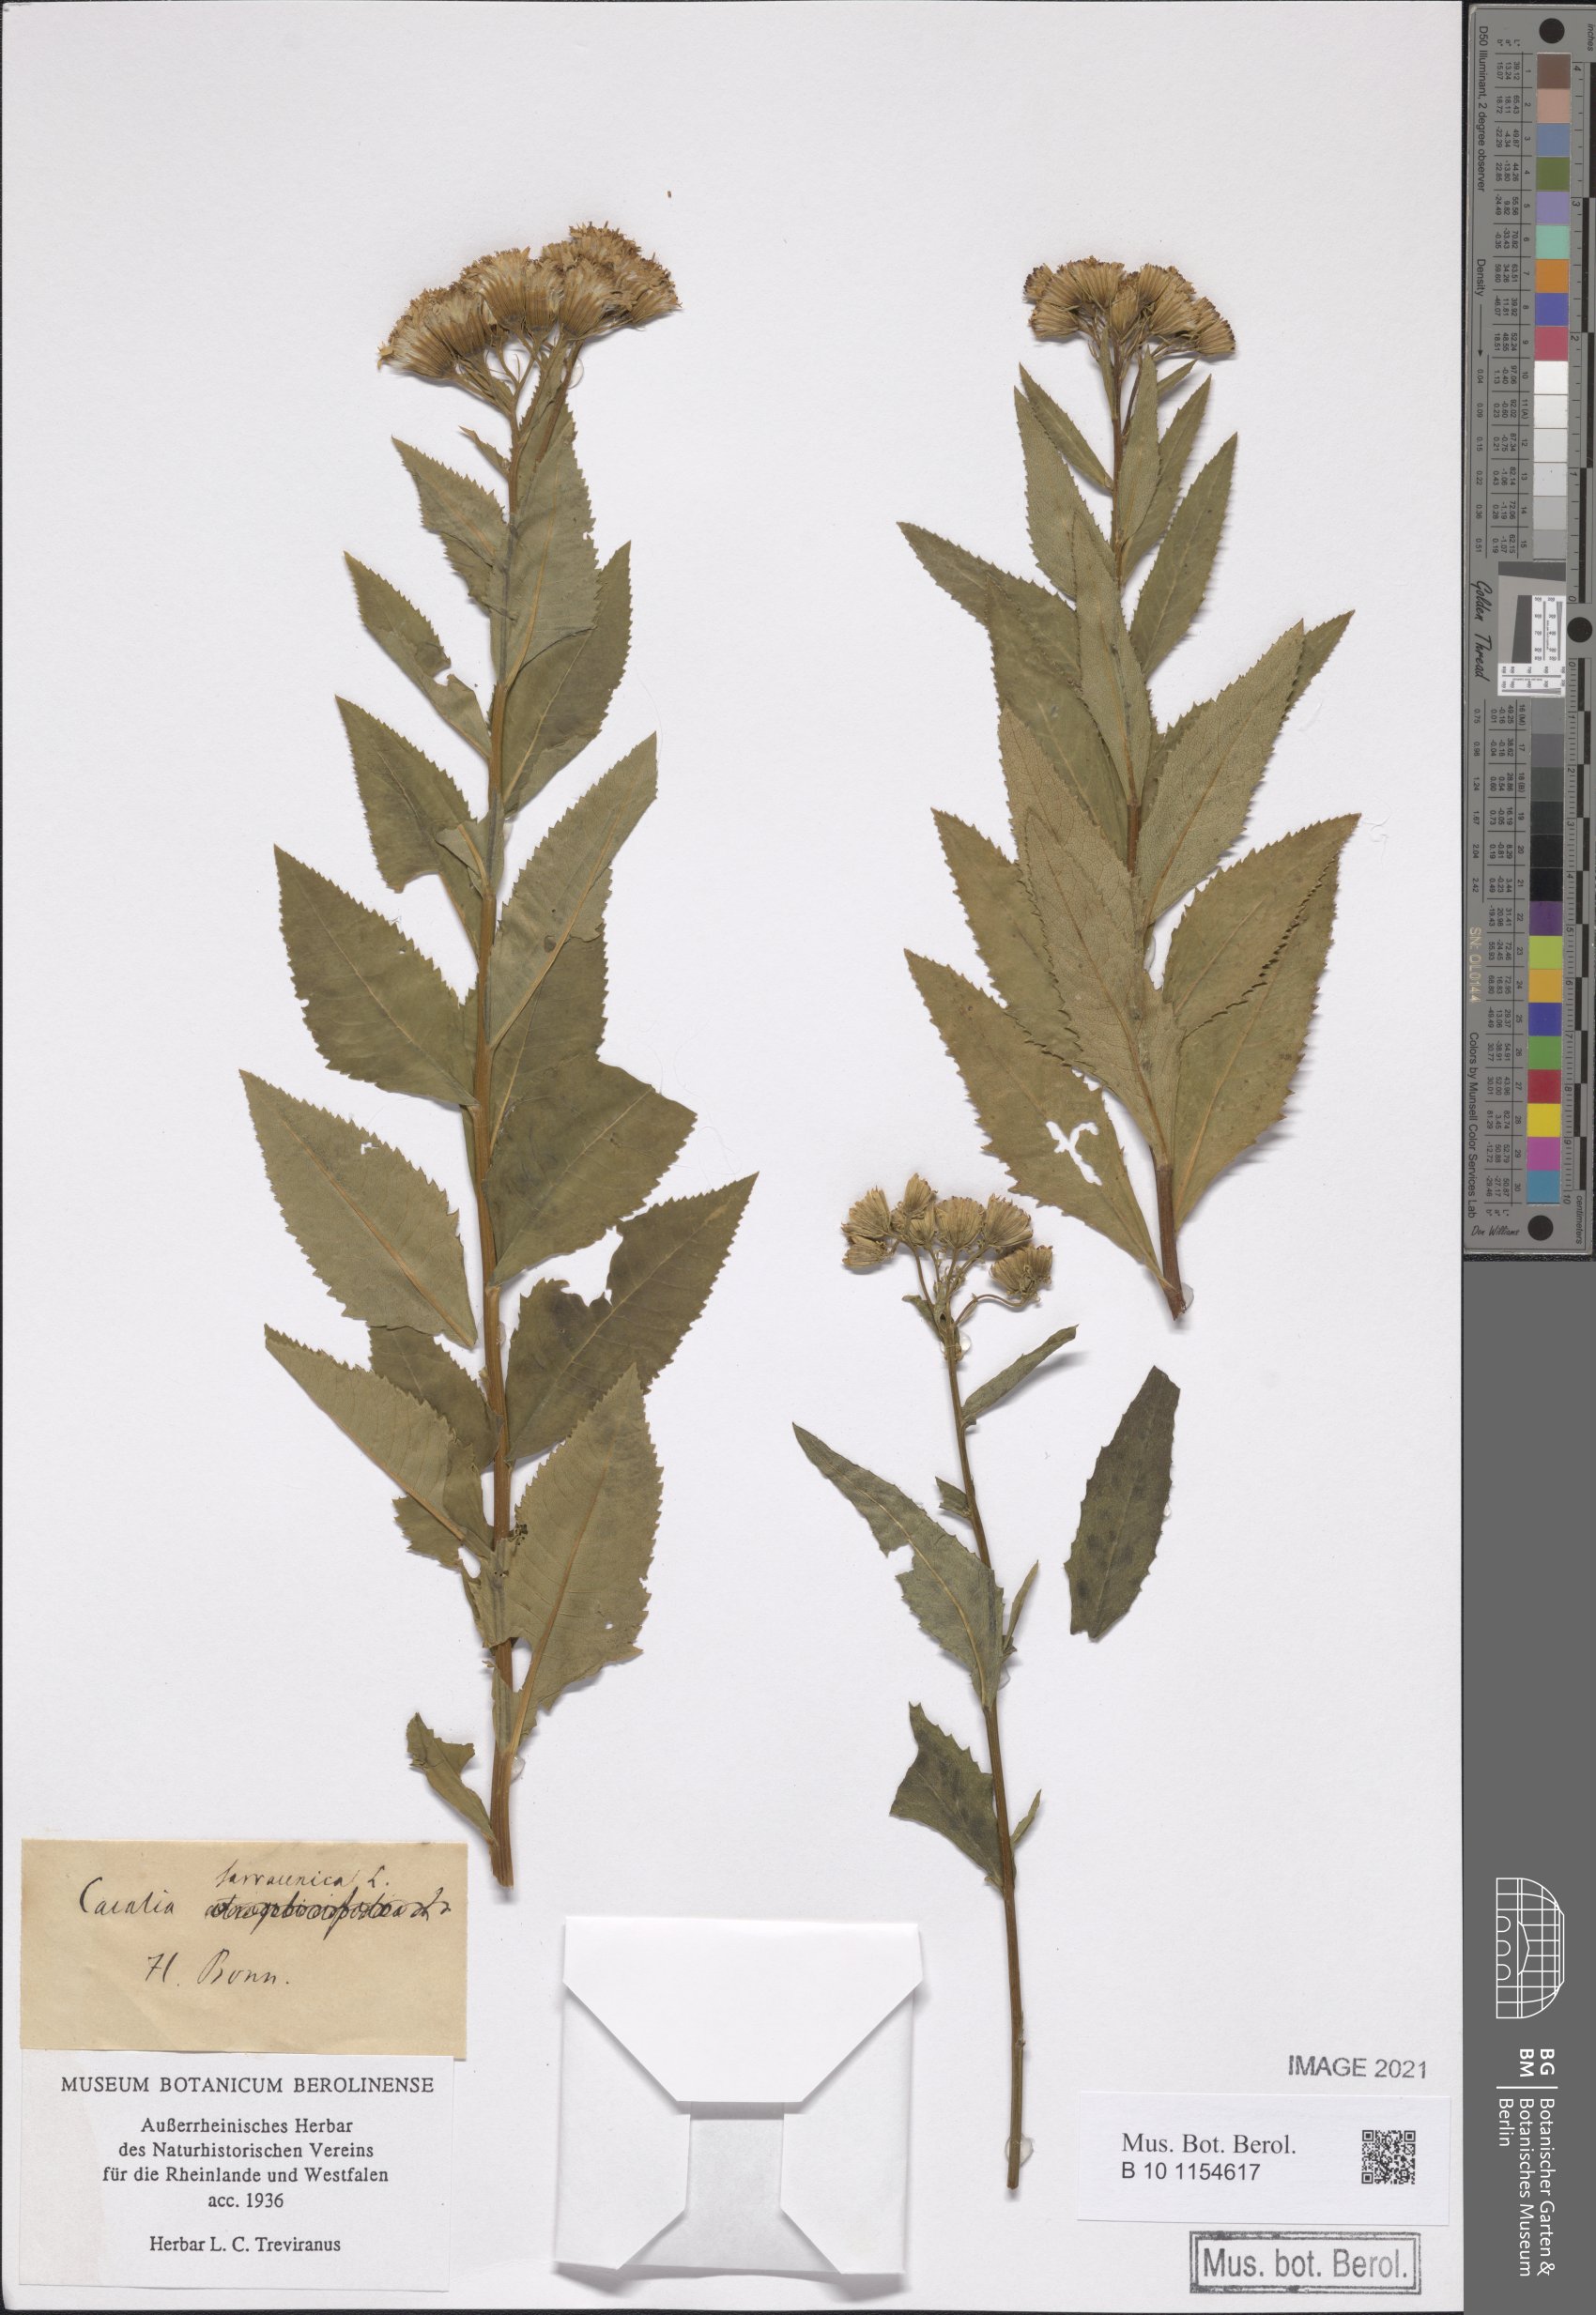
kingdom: Plantae
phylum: Tracheophyta
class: Magnoliopsida
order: Asterales
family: Asteraceae
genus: Senecio
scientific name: Senecio cacaliaster
